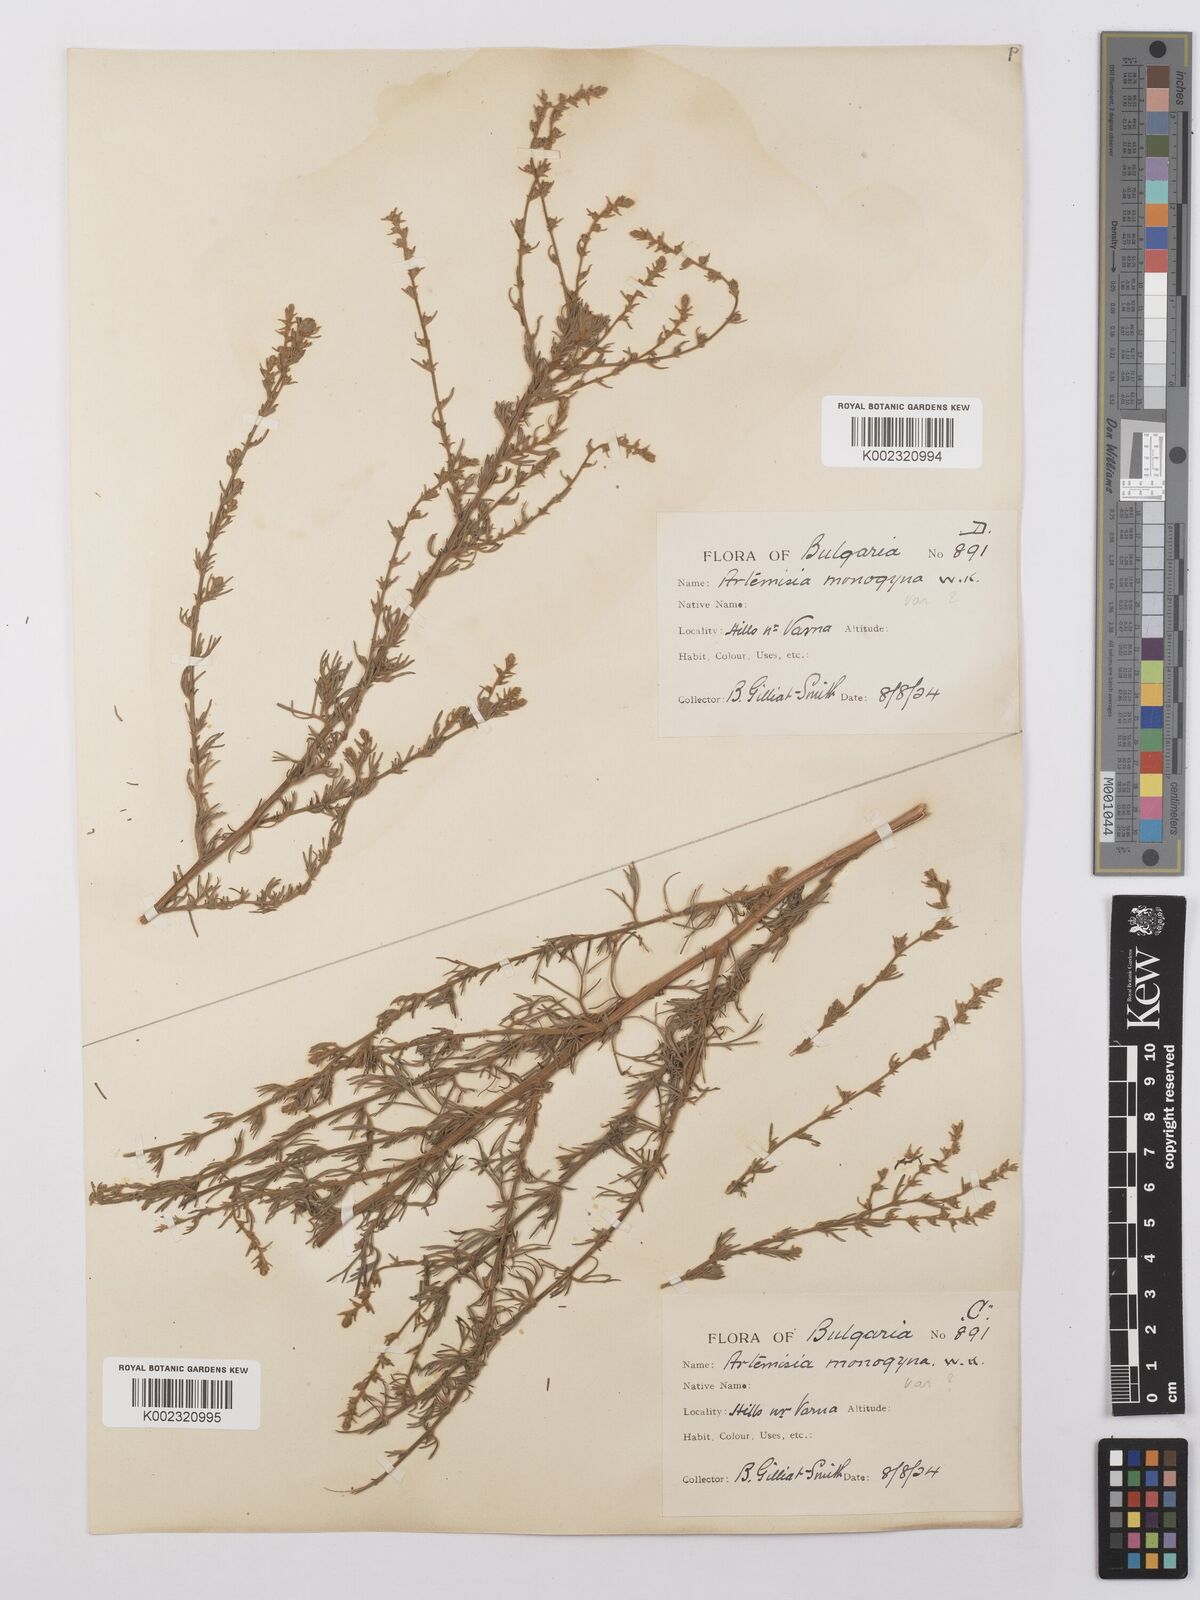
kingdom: Plantae
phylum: Tracheophyta
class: Magnoliopsida
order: Asterales
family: Asteraceae
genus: Artemisia
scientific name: Artemisia santonicum
